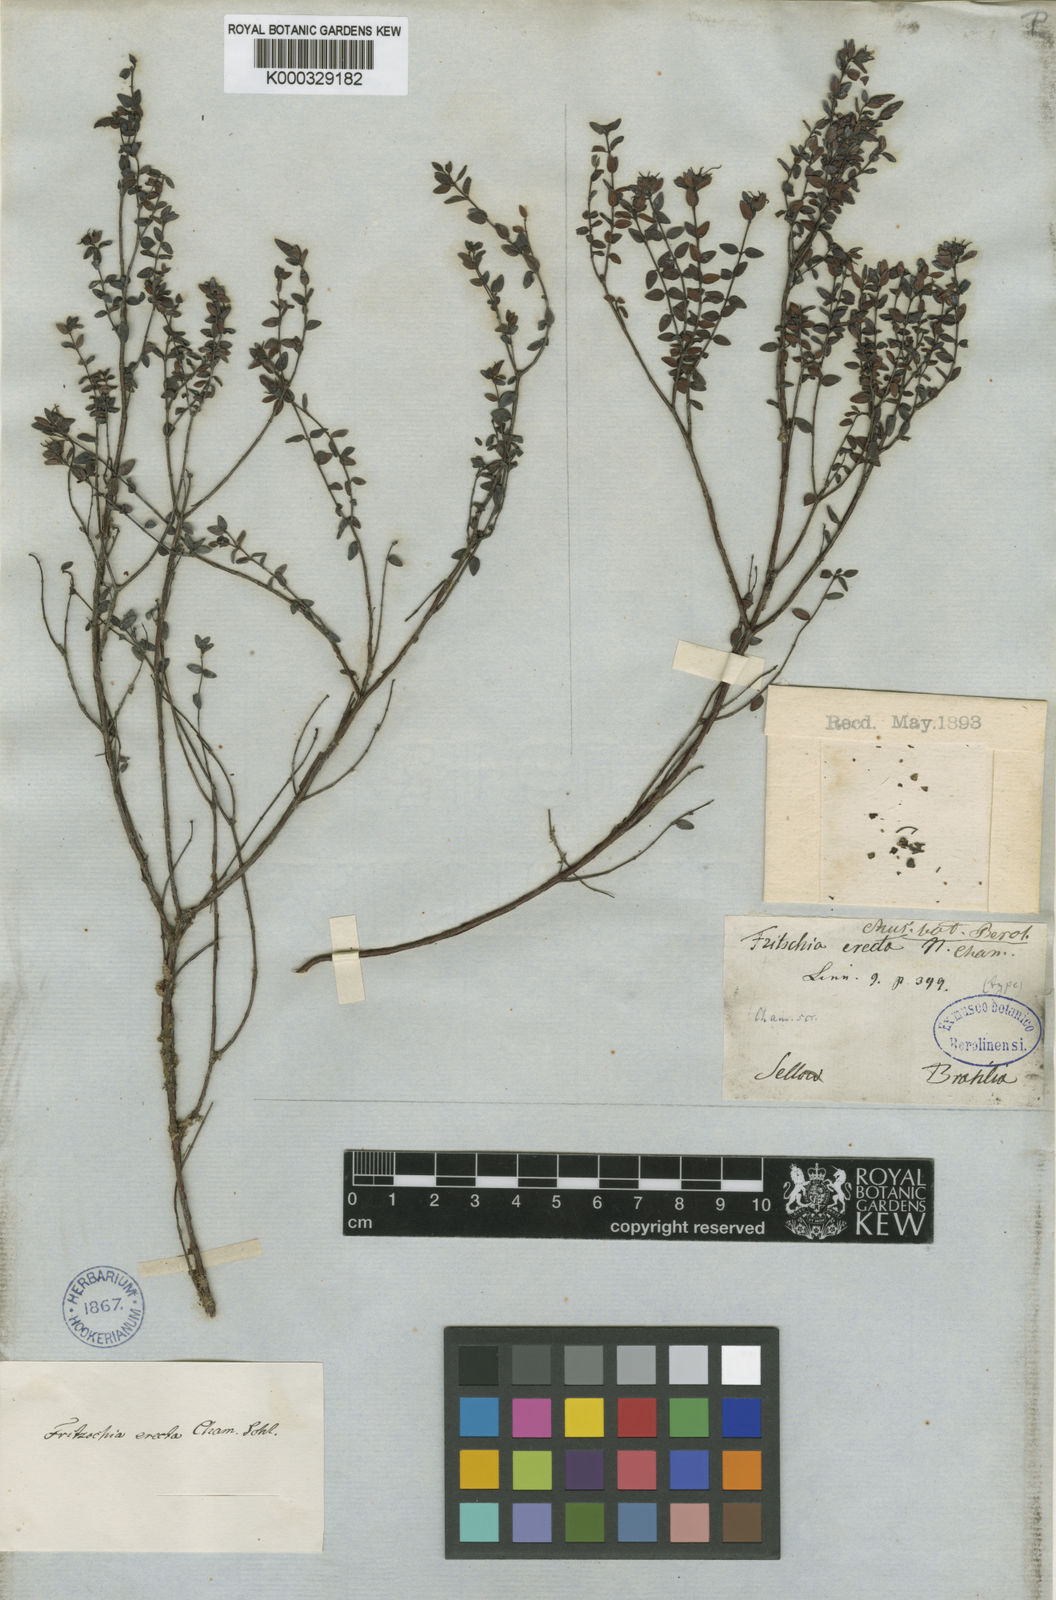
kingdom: Plantae
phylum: Tracheophyta
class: Magnoliopsida
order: Myrtales
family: Melastomataceae
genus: Fritzschia
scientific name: Fritzschia erecta
